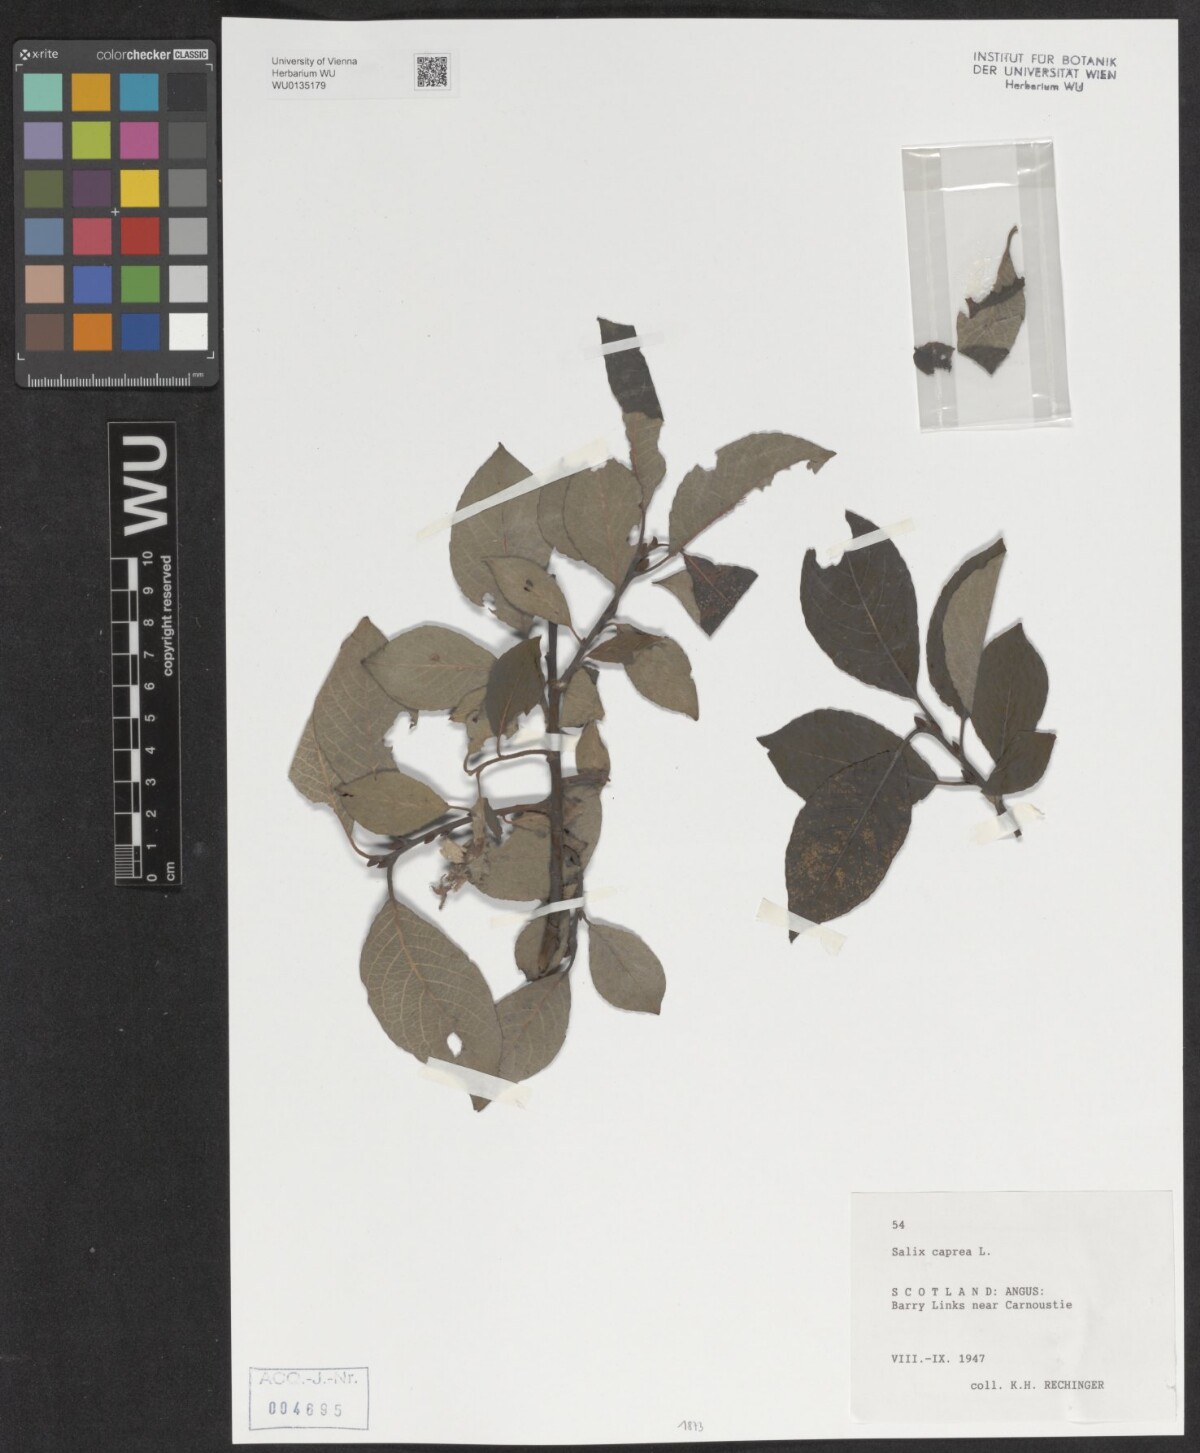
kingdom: Plantae
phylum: Tracheophyta
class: Magnoliopsida
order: Malpighiales
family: Salicaceae
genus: Salix
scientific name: Salix caprea
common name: Goat willow
